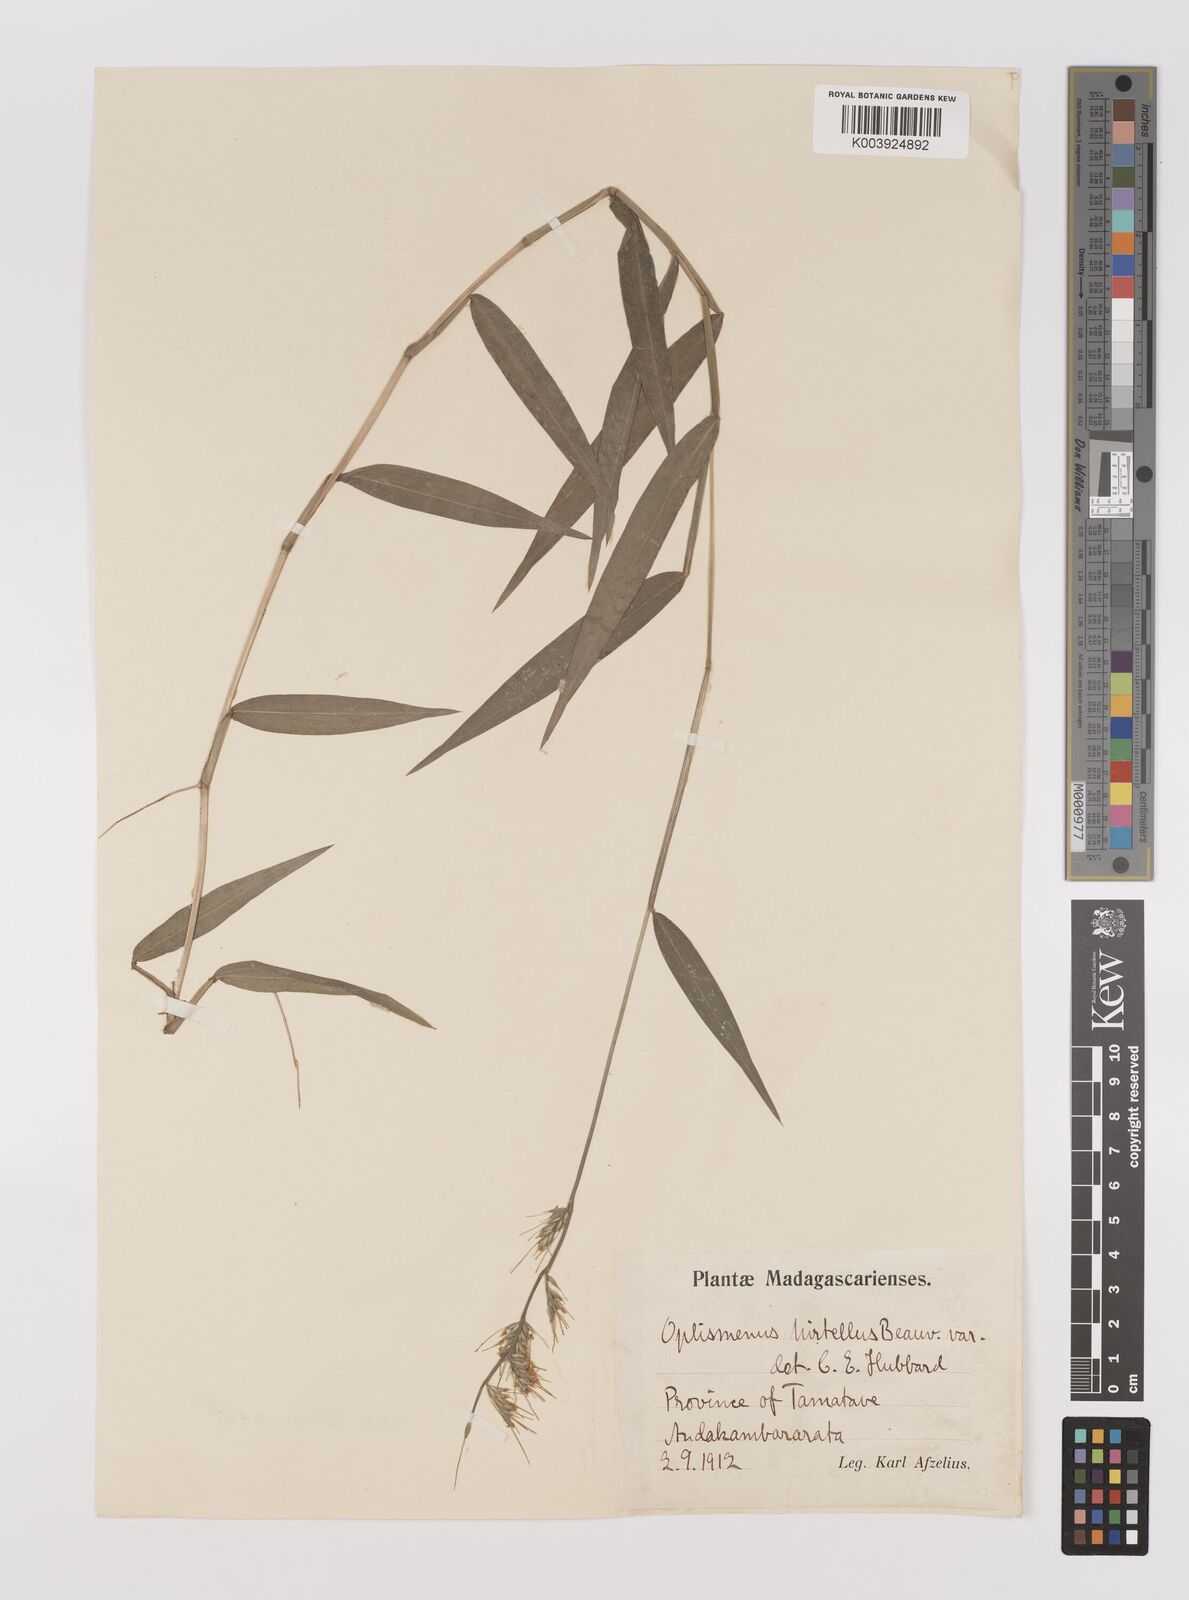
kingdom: Plantae
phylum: Tracheophyta
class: Liliopsida
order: Poales
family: Poaceae
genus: Oplismenus
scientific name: Oplismenus hirtellus
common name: Basketgrass
